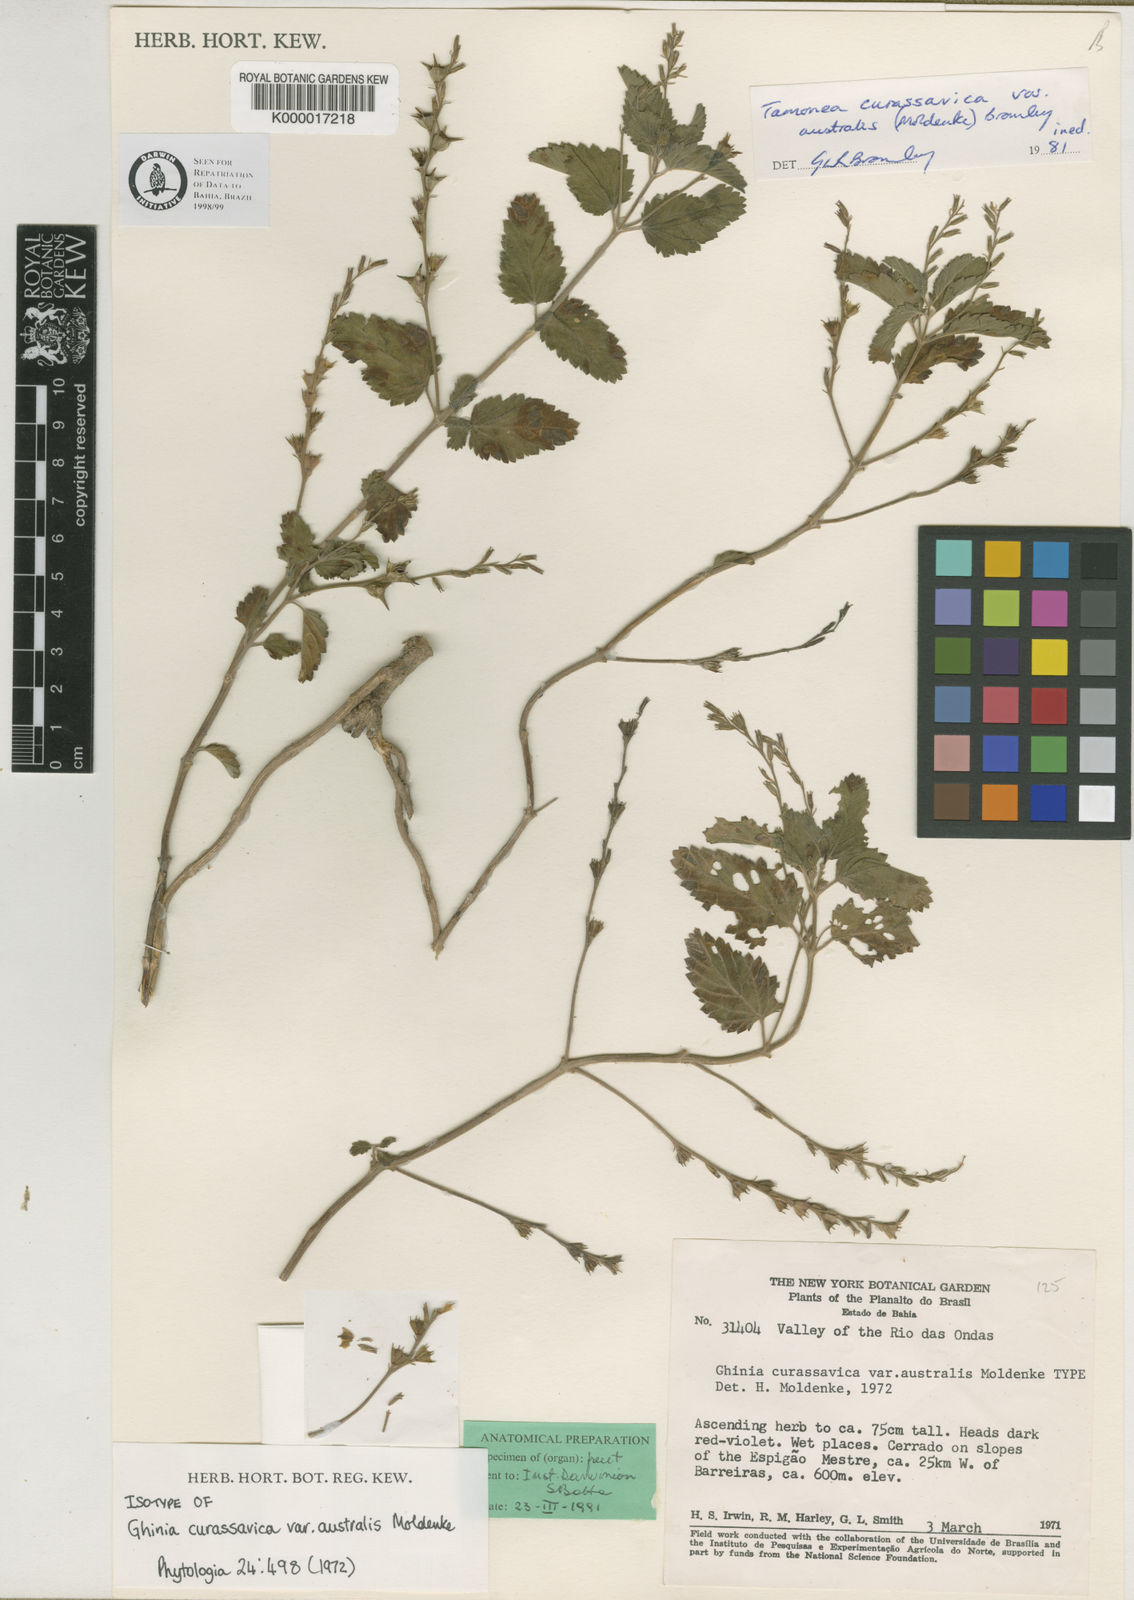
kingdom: Plantae
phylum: Tracheophyta
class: Magnoliopsida
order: Lamiales
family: Verbenaceae
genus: Tamonea
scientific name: Tamonea curassavica
